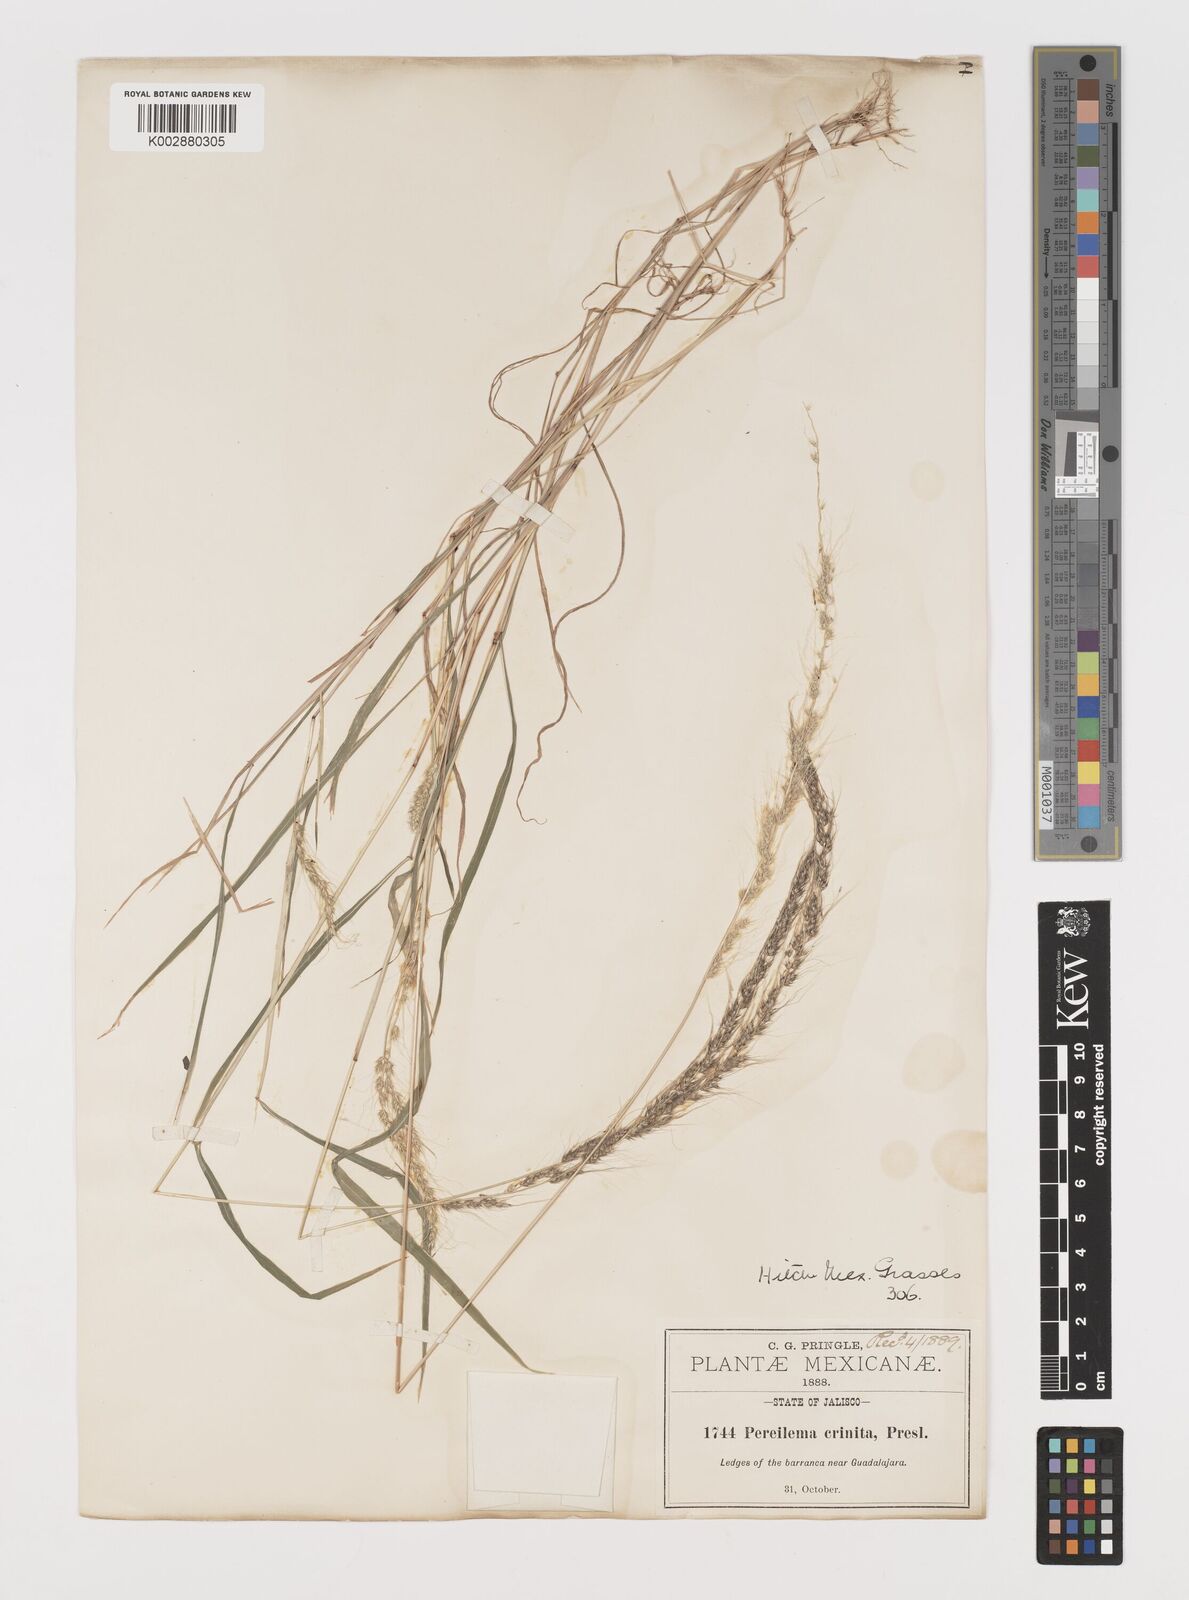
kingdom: Plantae
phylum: Tracheophyta
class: Liliopsida
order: Poales
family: Poaceae
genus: Muhlenbergia
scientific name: Muhlenbergia pereilema
